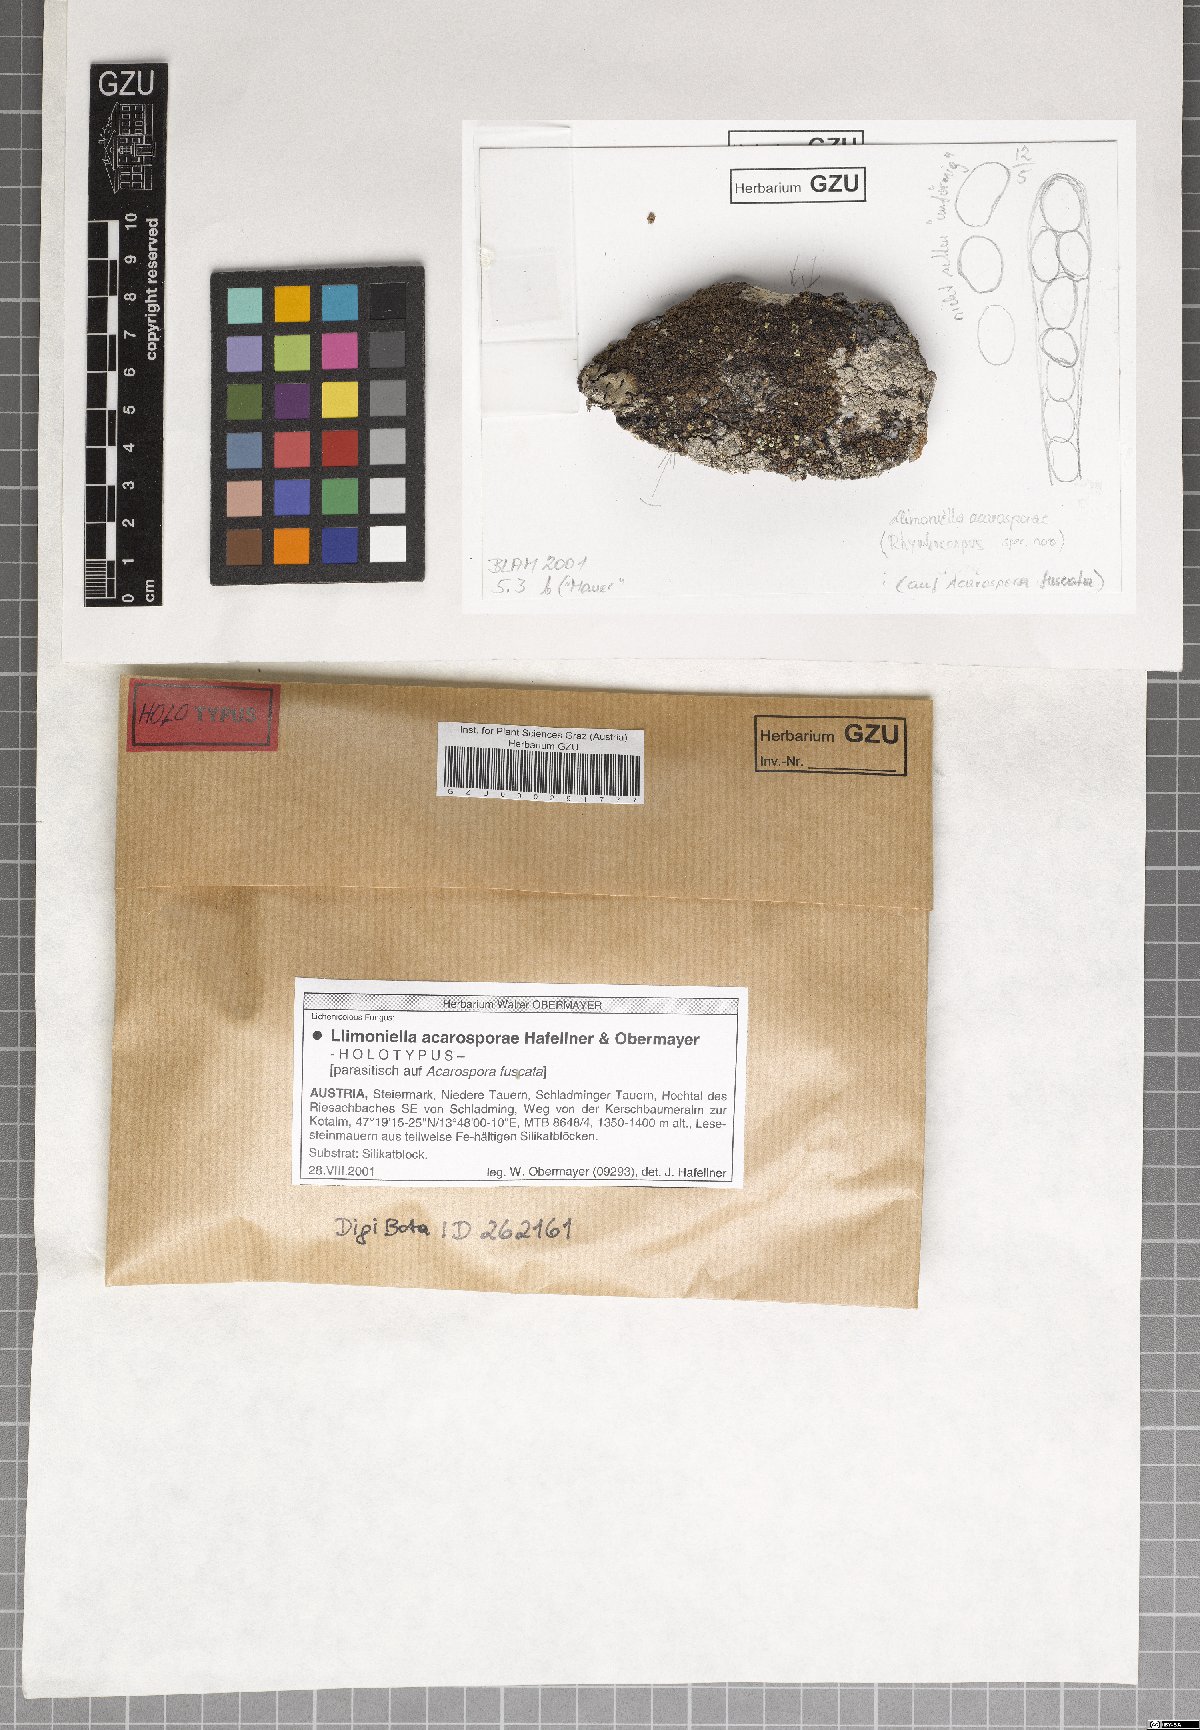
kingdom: Fungi
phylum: Ascomycota
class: Leotiomycetes
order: Helotiales
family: Cordieritidaceae
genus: Llimoniella
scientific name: Llimoniella fuscatae
